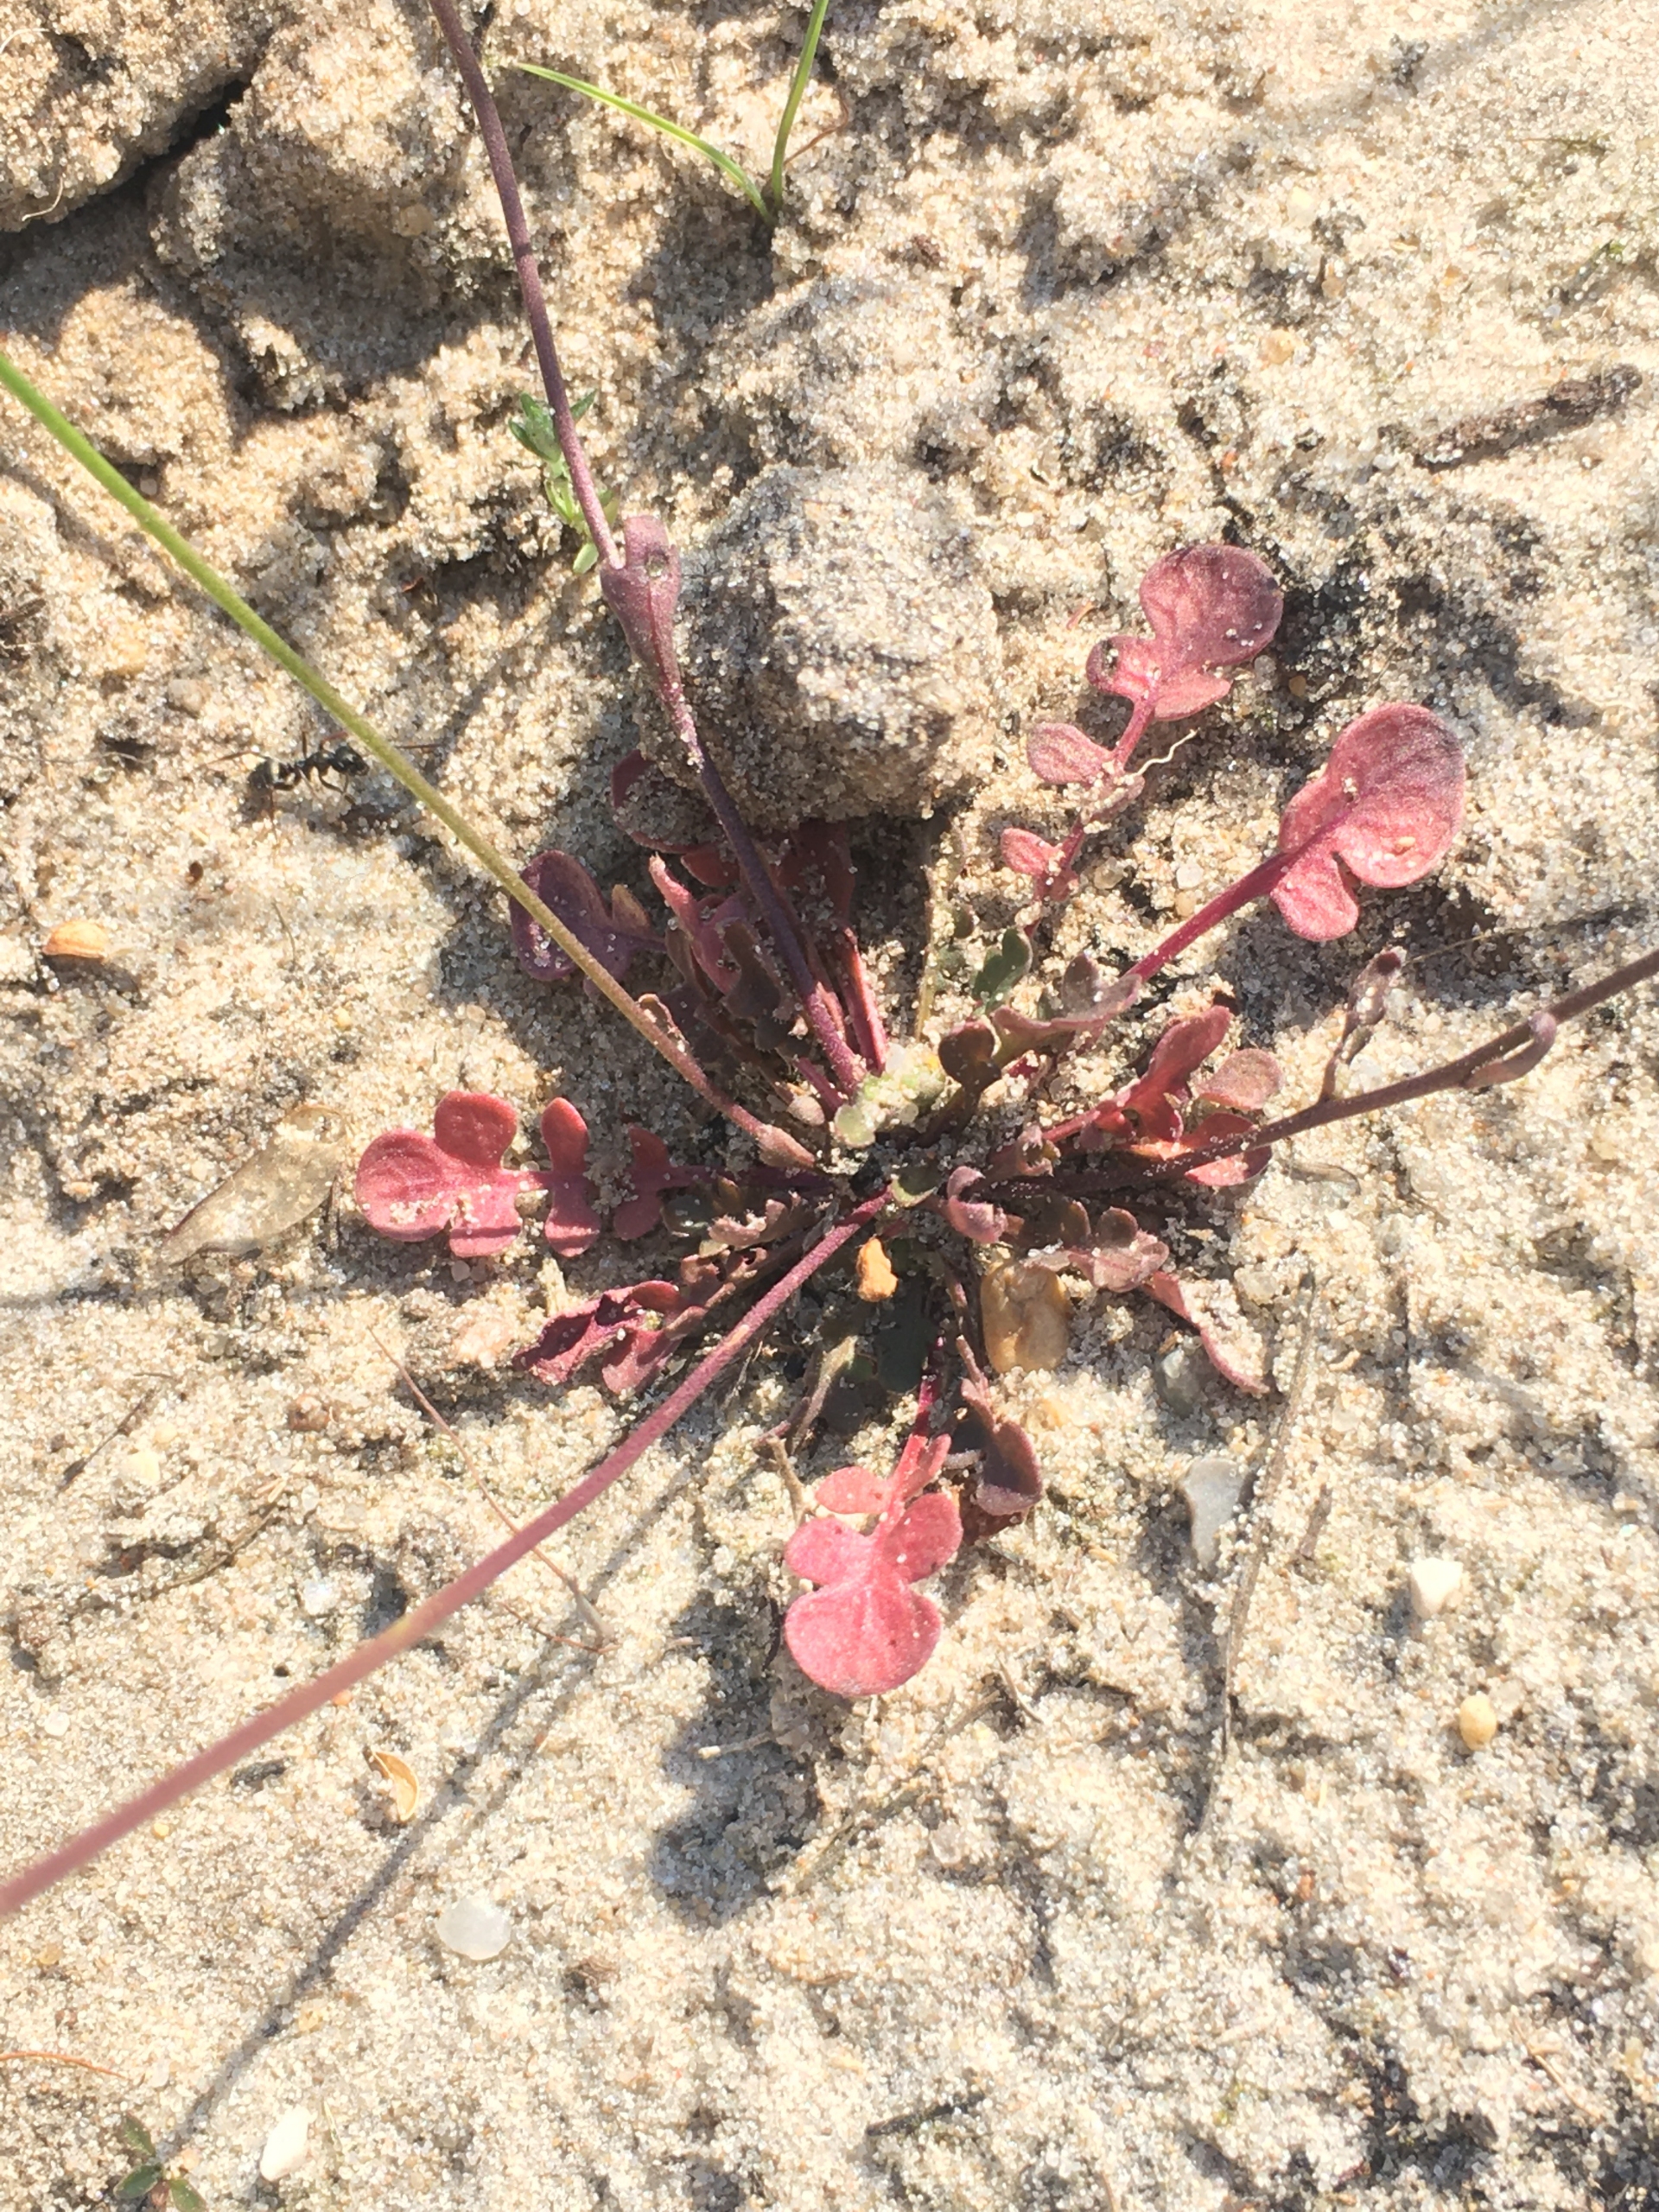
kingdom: Plantae
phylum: Tracheophyta
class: Magnoliopsida
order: Brassicales
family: Brassicaceae
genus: Teesdalia
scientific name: Teesdalia nudicaulis
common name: Flipkrave
